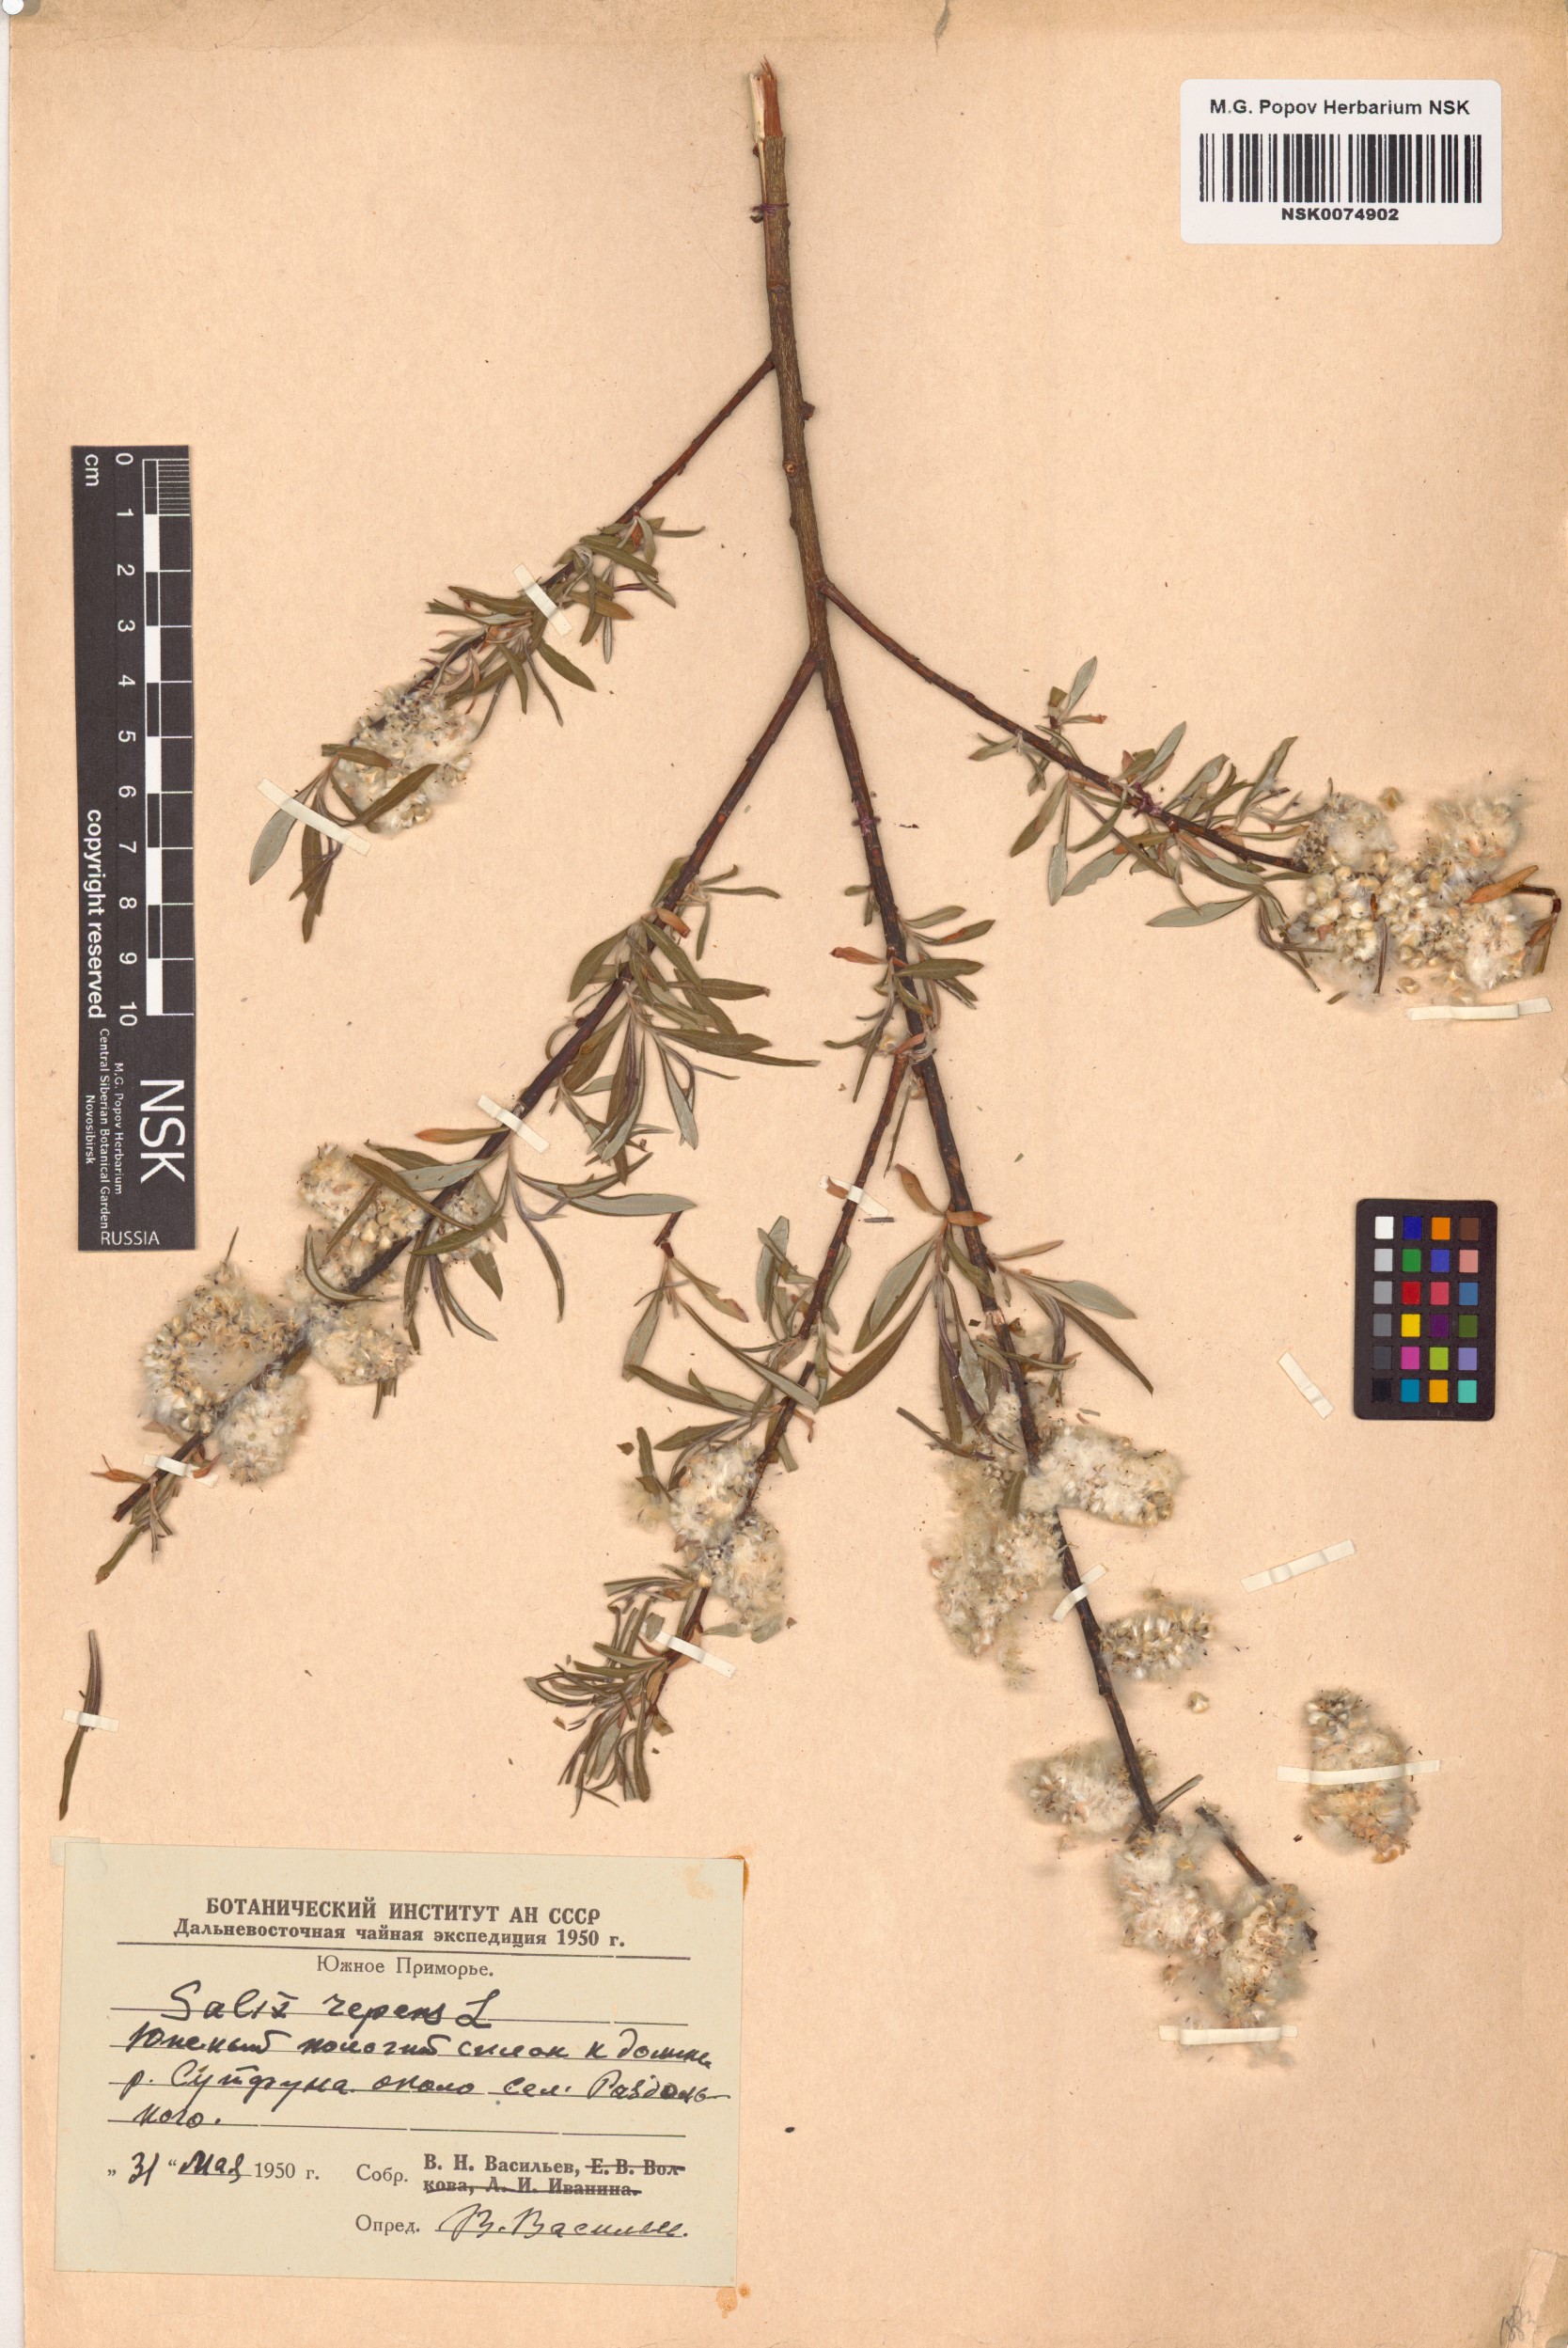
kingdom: Plantae
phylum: Tracheophyta
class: Magnoliopsida
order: Malpighiales
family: Salicaceae
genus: Salix
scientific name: Salix repens
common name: Creeping willow
